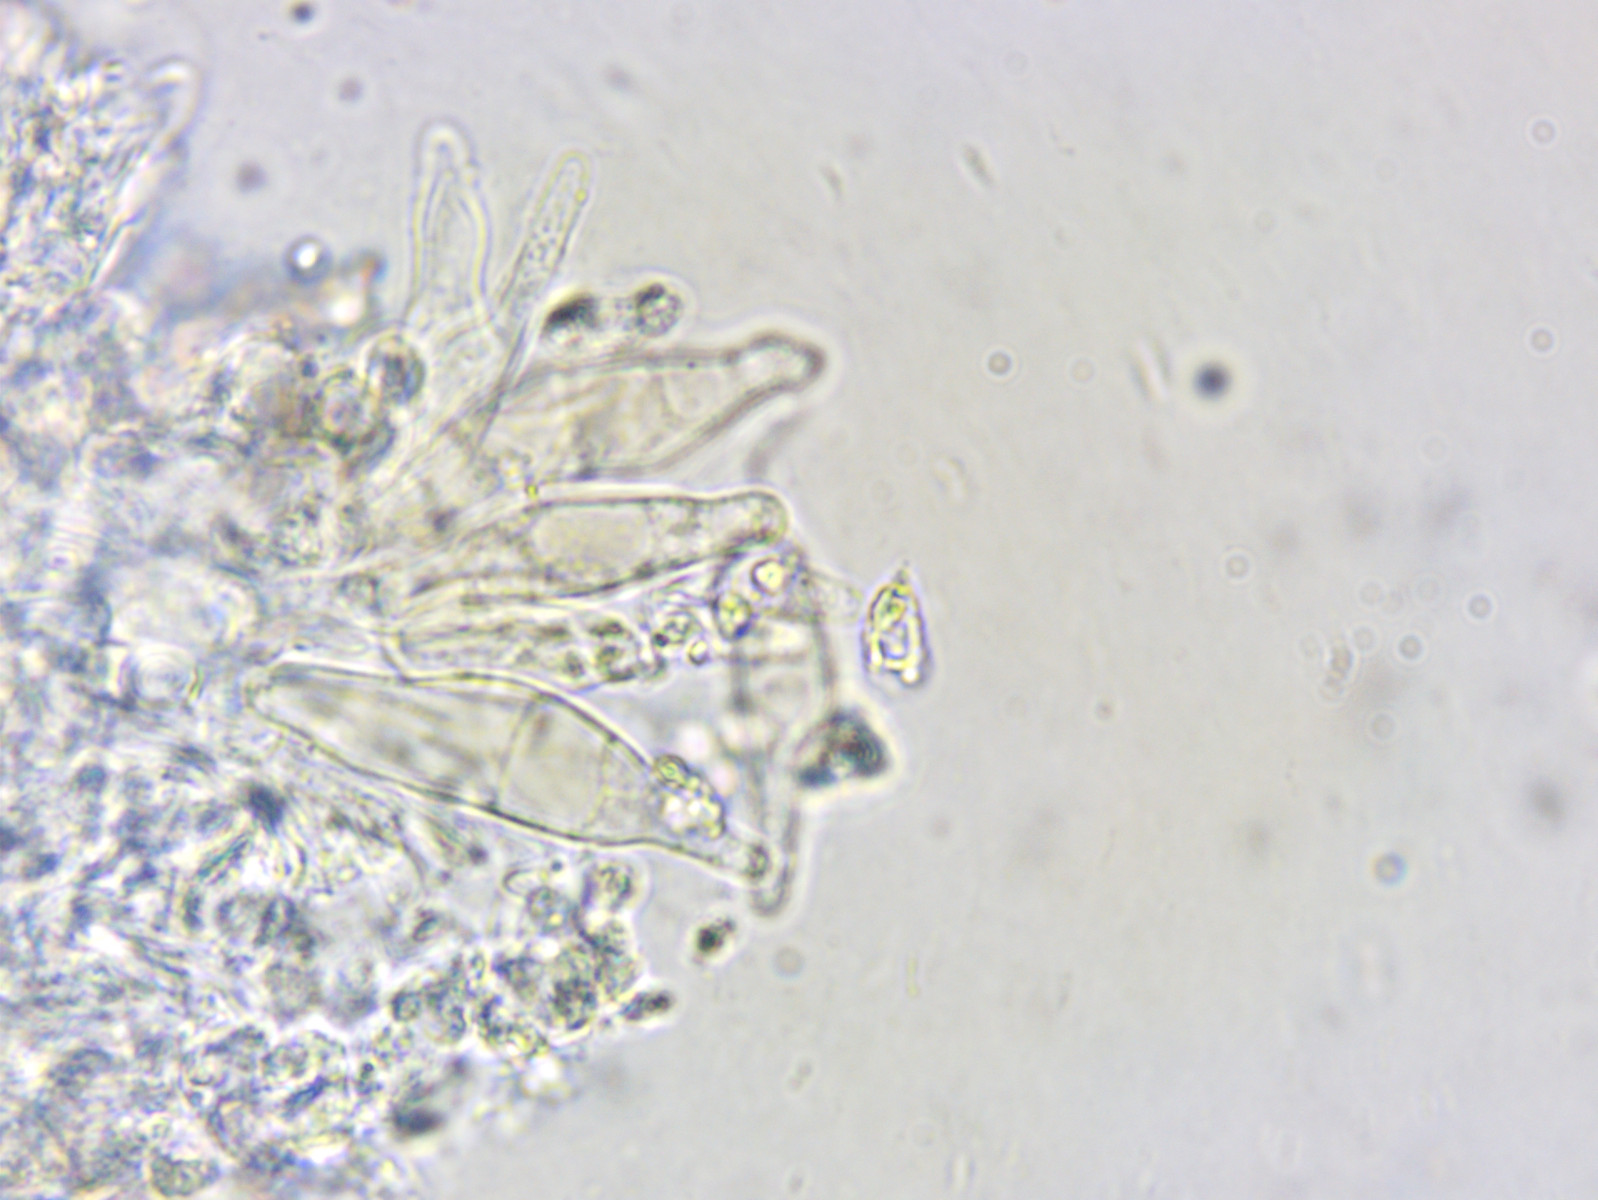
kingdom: Fungi
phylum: Basidiomycota
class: Agaricomycetes
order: Agaricales
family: Mycenaceae
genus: Mycena
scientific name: Mycena citrinomarginata
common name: gulægget huesvamp
